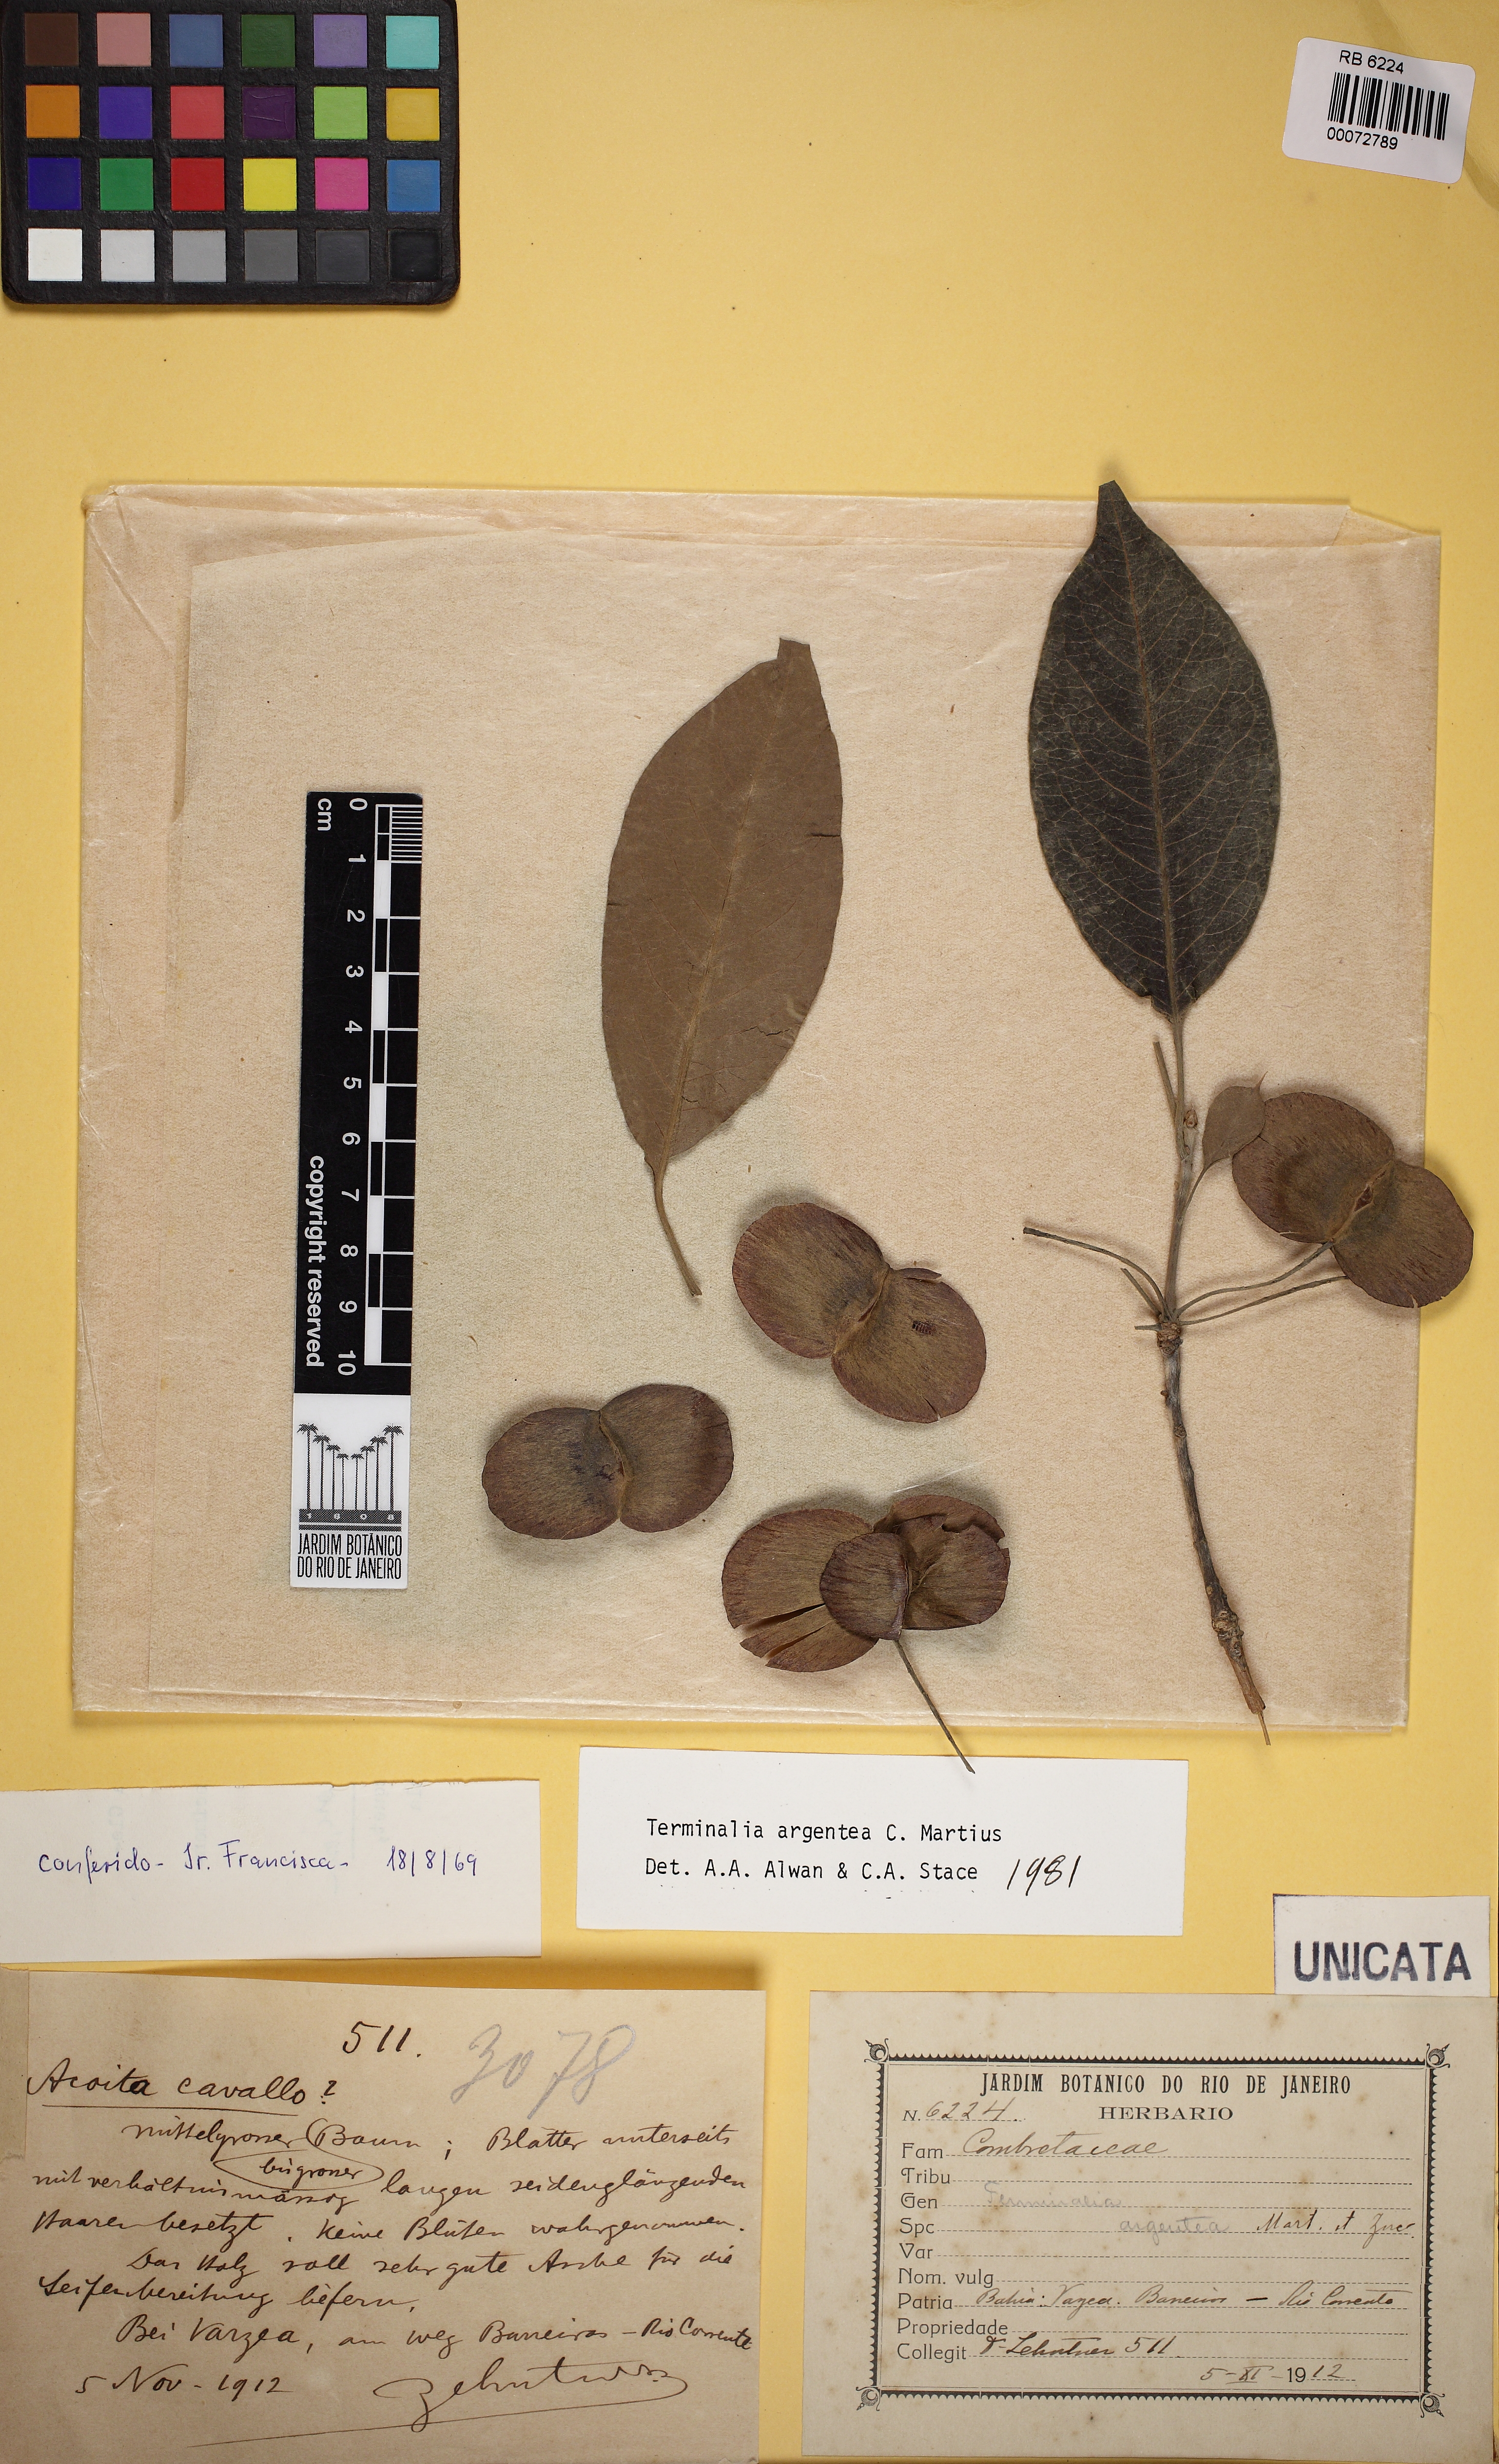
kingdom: Plantae
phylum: Tracheophyta
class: Magnoliopsida
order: Myrtales
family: Combretaceae
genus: Terminalia
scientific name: Terminalia argentea
